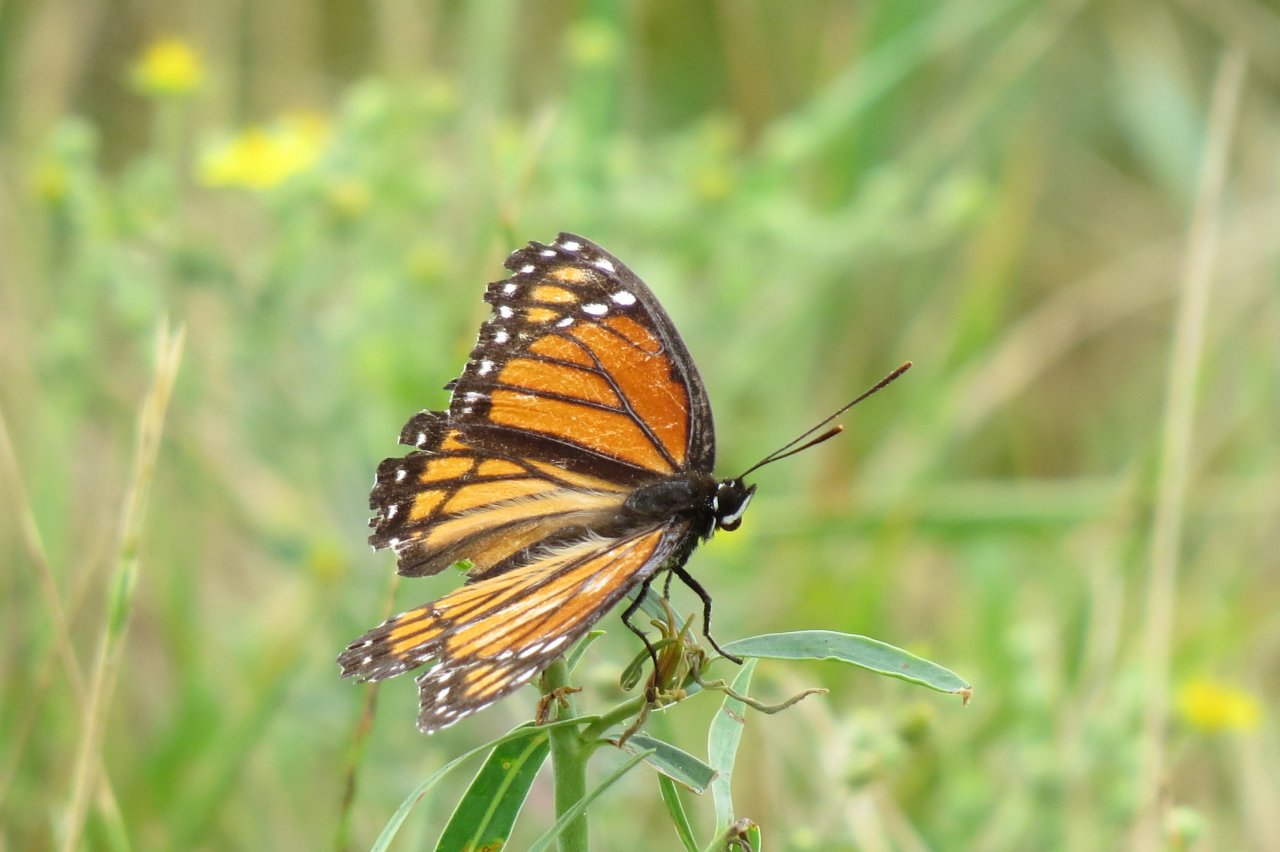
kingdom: Animalia
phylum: Arthropoda
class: Insecta
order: Lepidoptera
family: Nymphalidae
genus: Limenitis
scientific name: Limenitis archippus
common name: Viceroy
